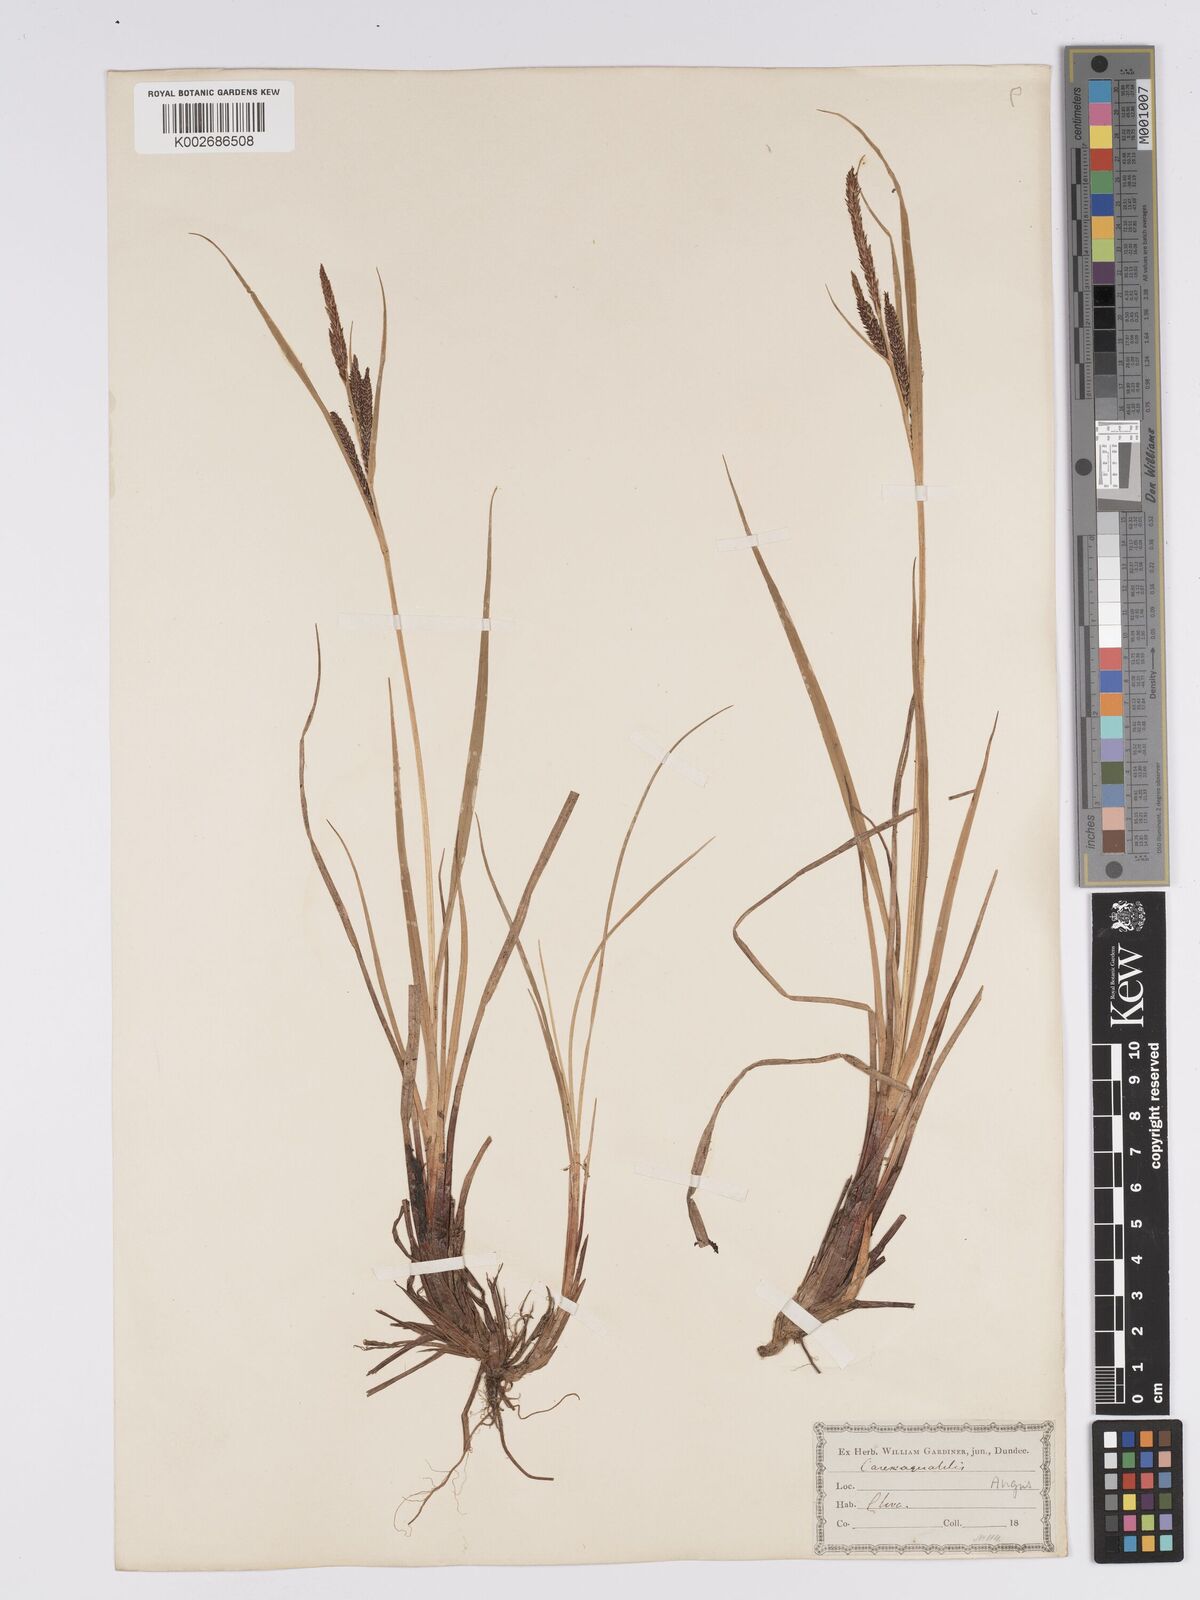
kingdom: Plantae
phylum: Tracheophyta
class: Liliopsida
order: Poales
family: Cyperaceae
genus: Carex
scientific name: Carex aquatilis
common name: Water sedge
